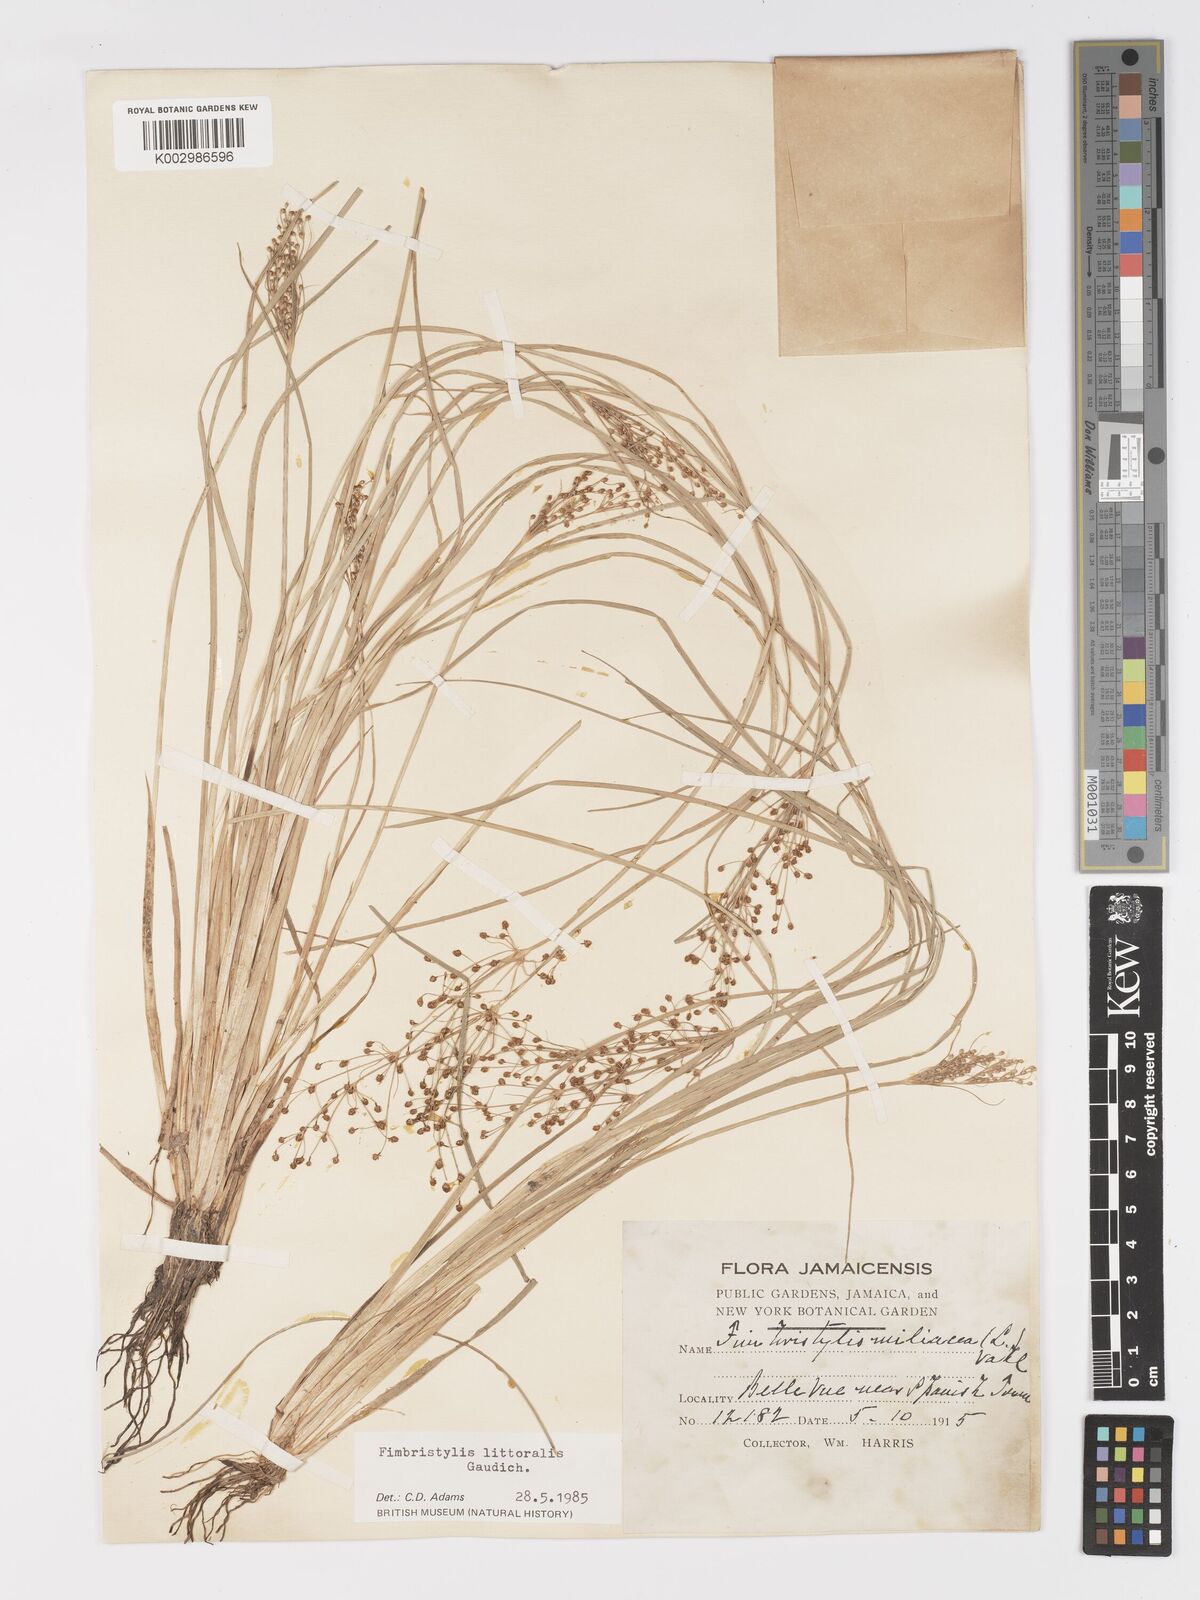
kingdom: Plantae
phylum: Tracheophyta
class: Liliopsida
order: Poales
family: Cyperaceae
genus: Fimbristylis
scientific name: Fimbristylis littoralis
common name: Fimbry
